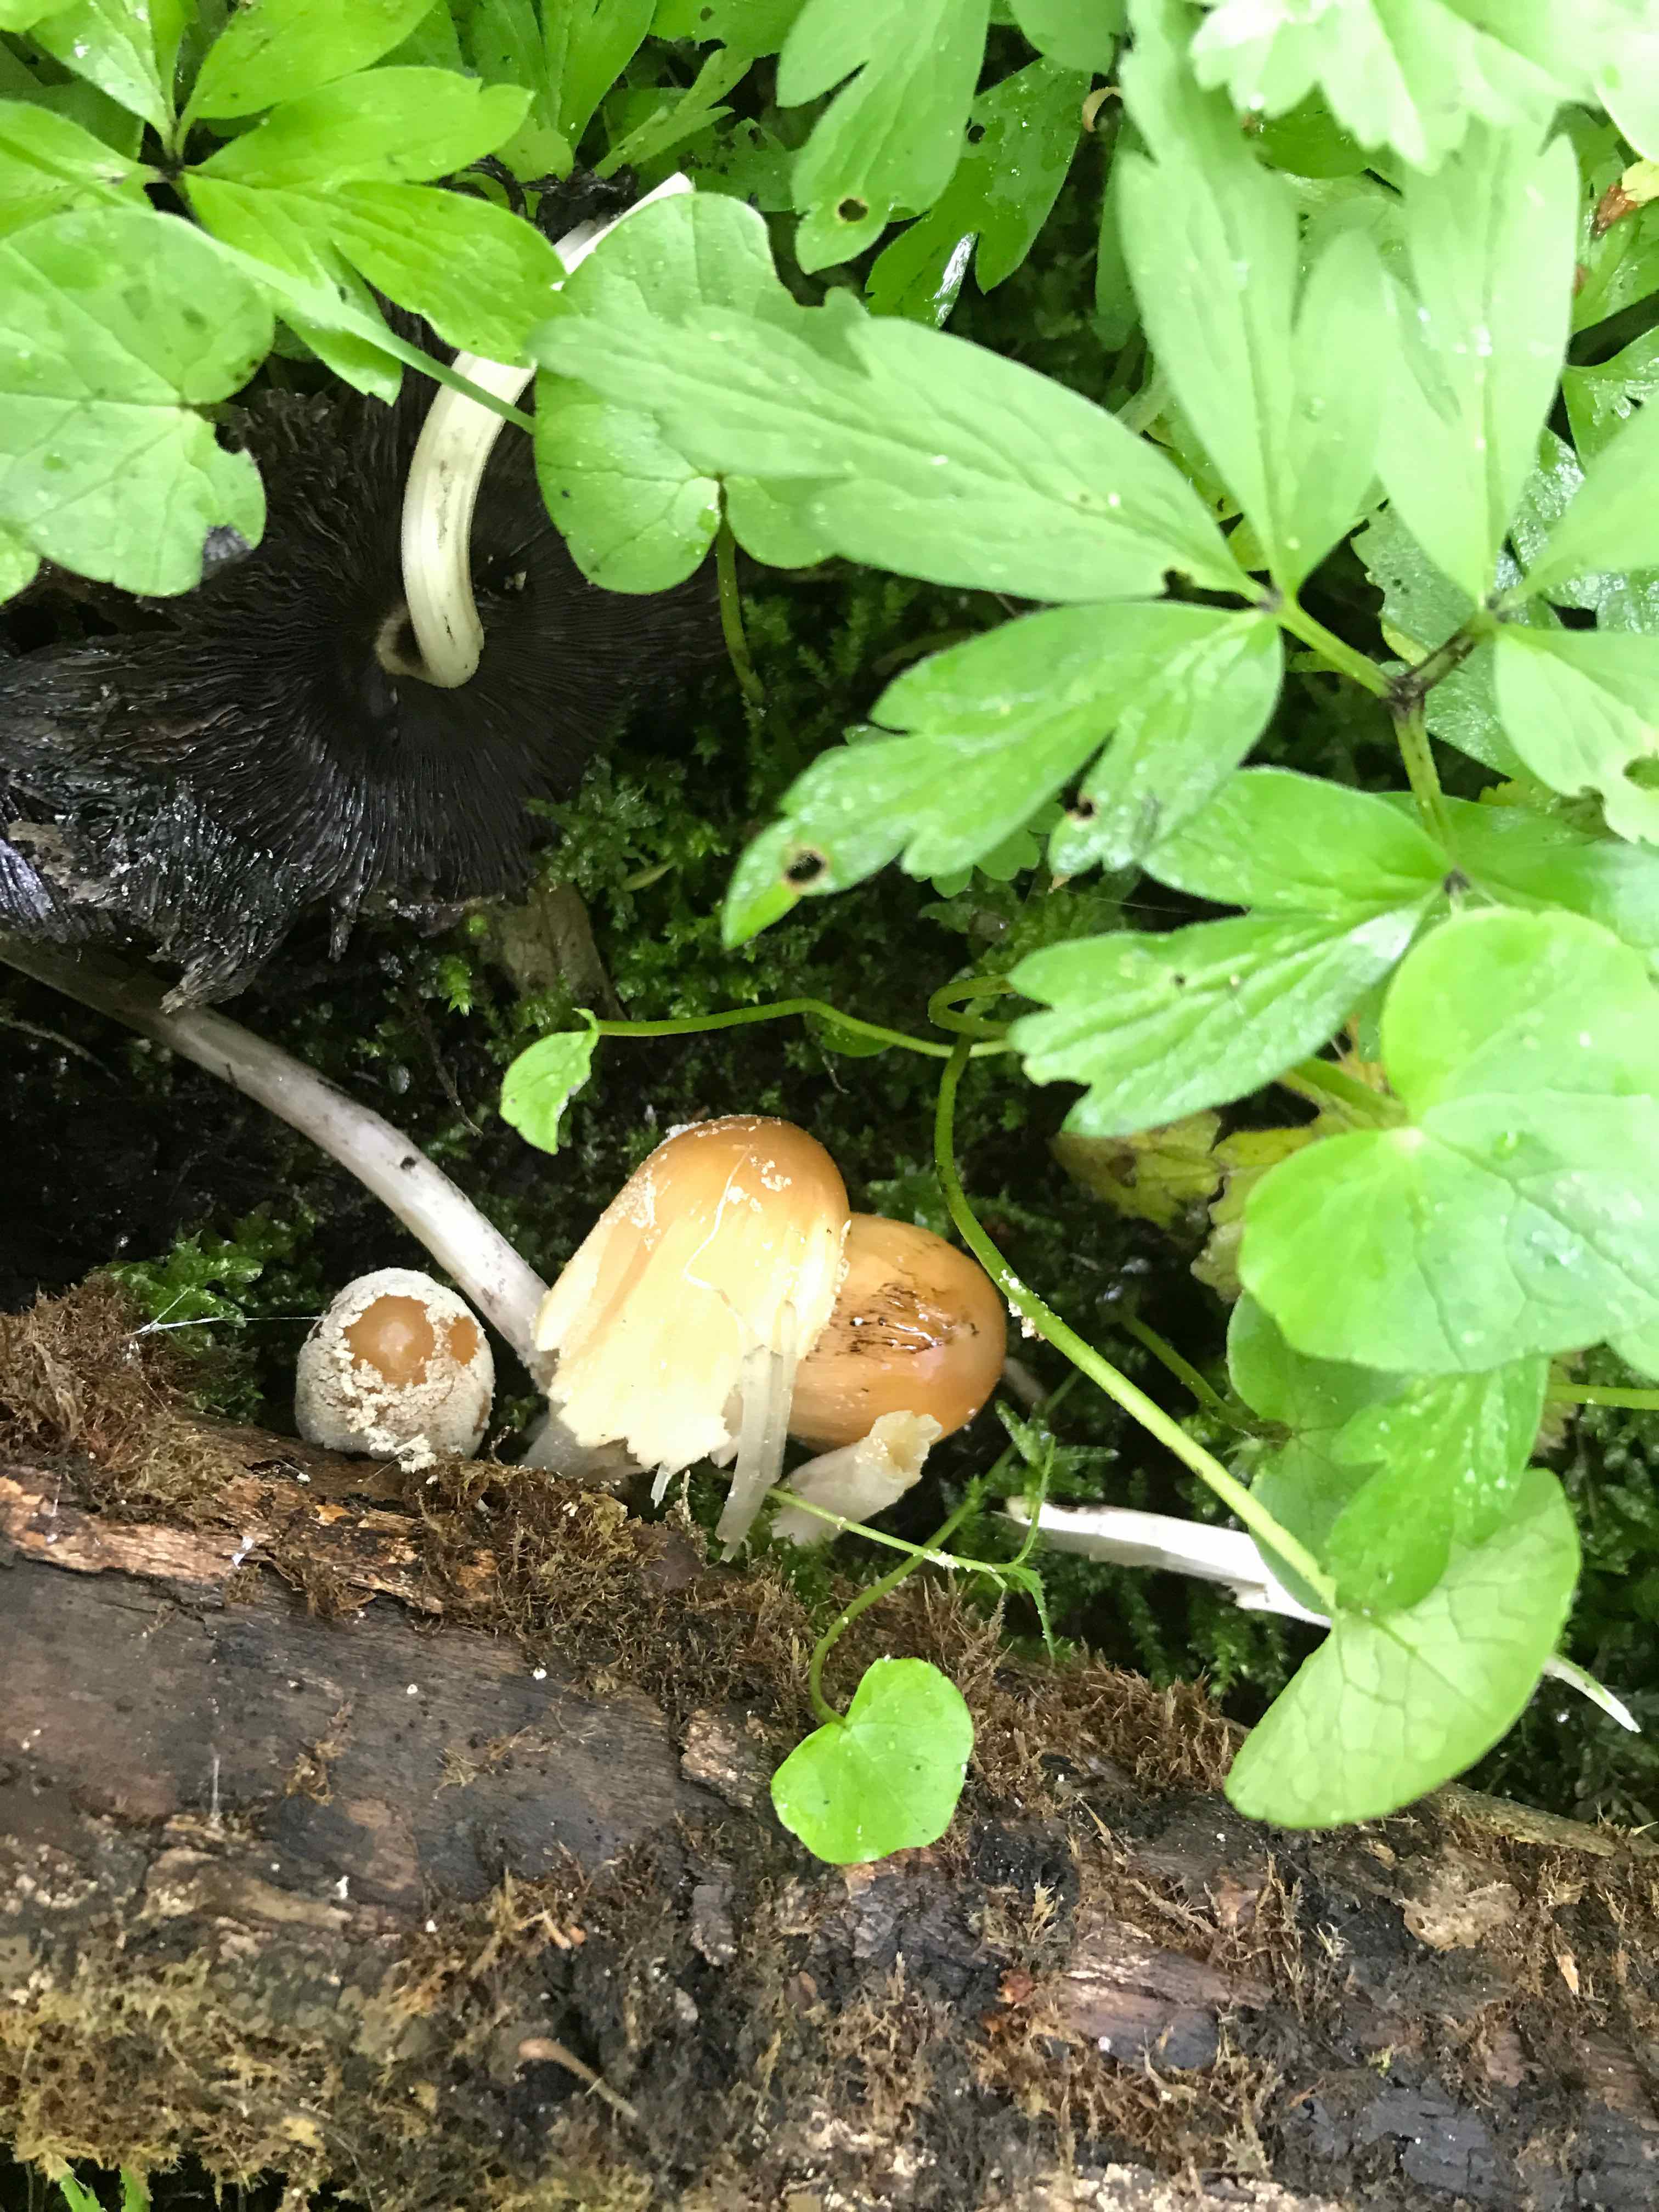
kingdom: Fungi
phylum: Basidiomycota
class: Agaricomycetes
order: Agaricales
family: Psathyrellaceae
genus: Coprinellus
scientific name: Coprinellus micaceus
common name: glimmer-blækhat
